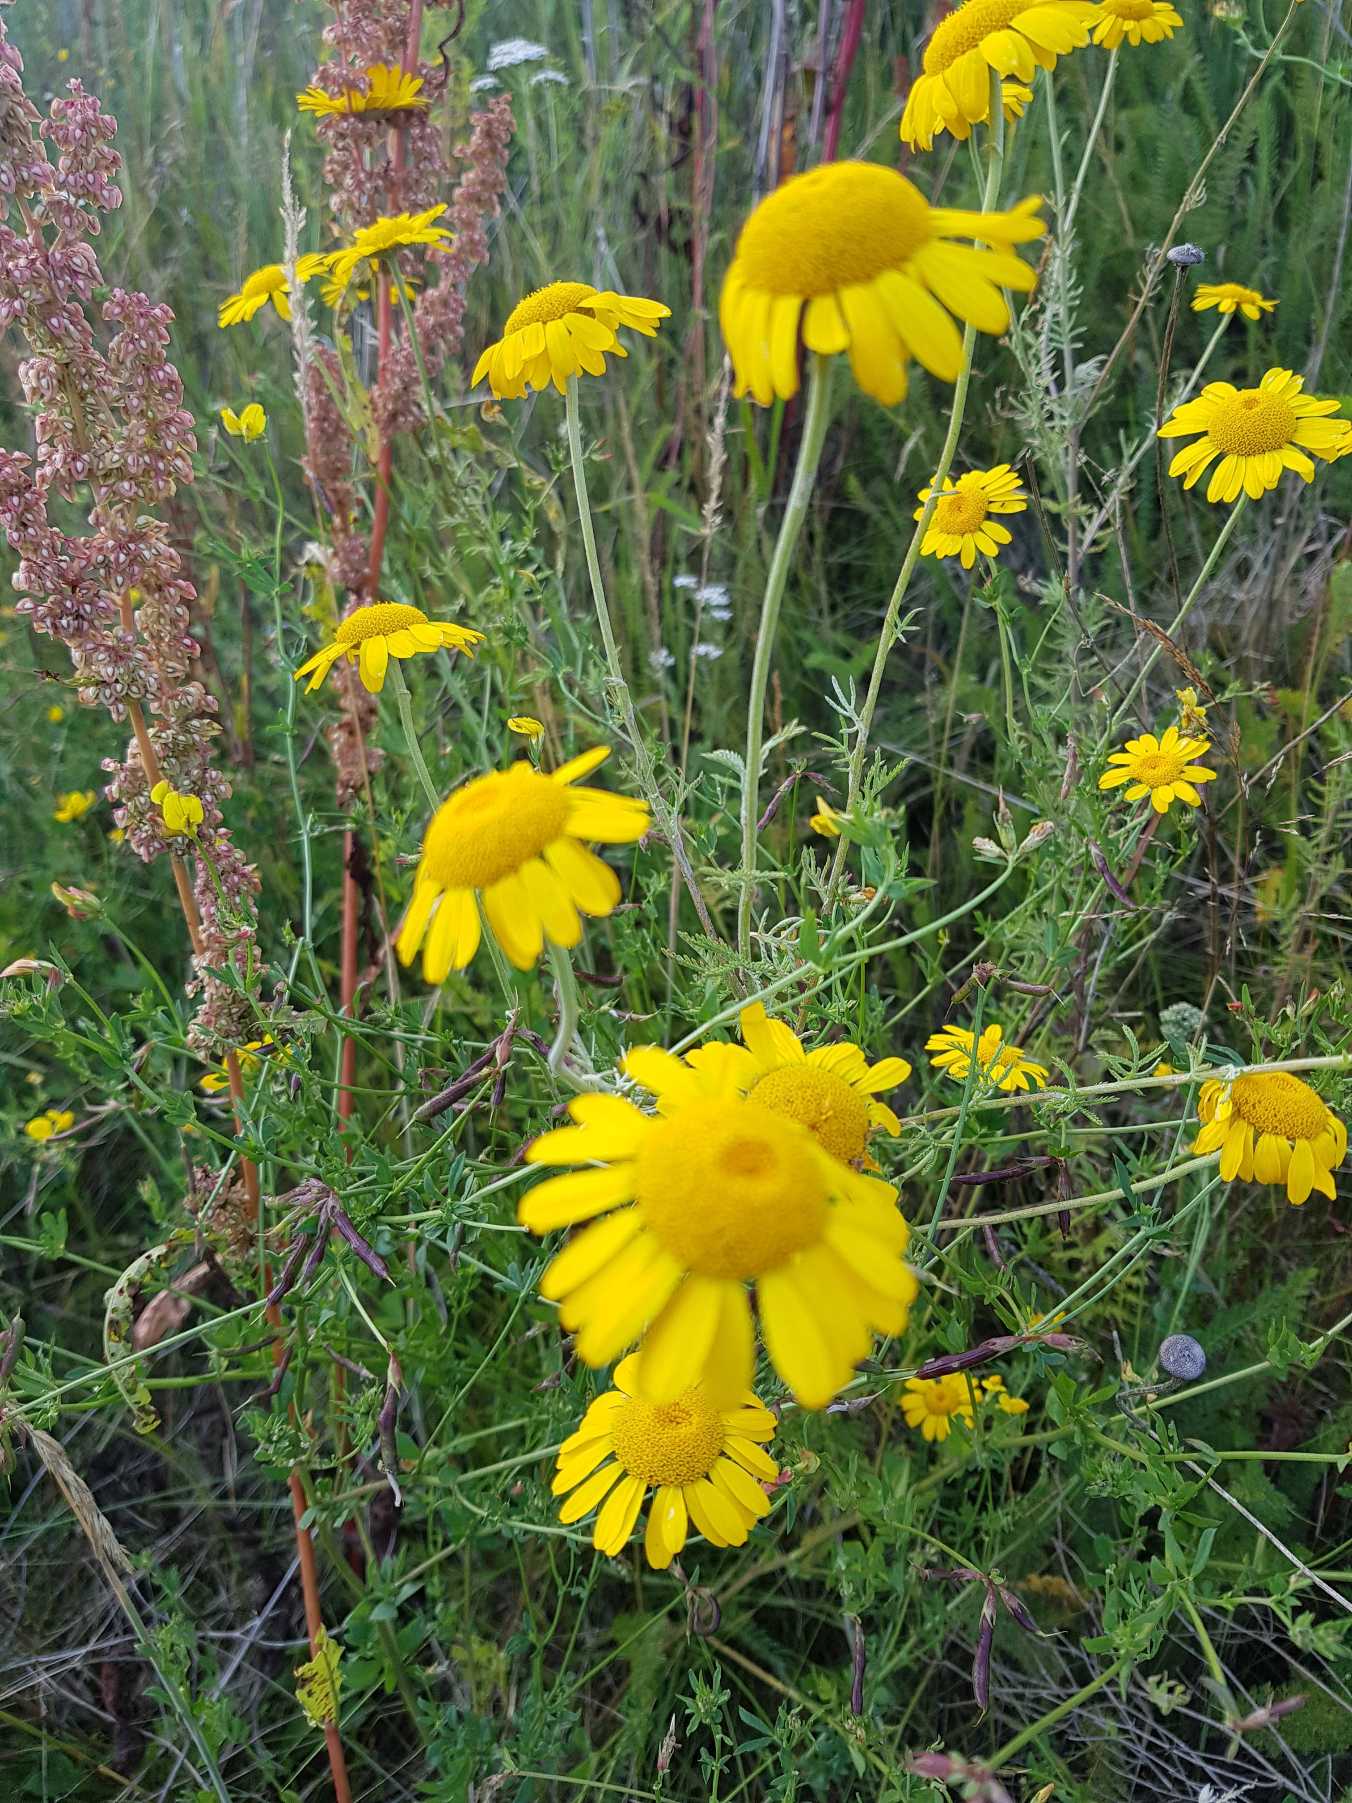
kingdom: Plantae
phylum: Tracheophyta
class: Magnoliopsida
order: Asterales
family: Asteraceae
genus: Cota
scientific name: Cota tinctoria
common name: Farve-gåseurt
